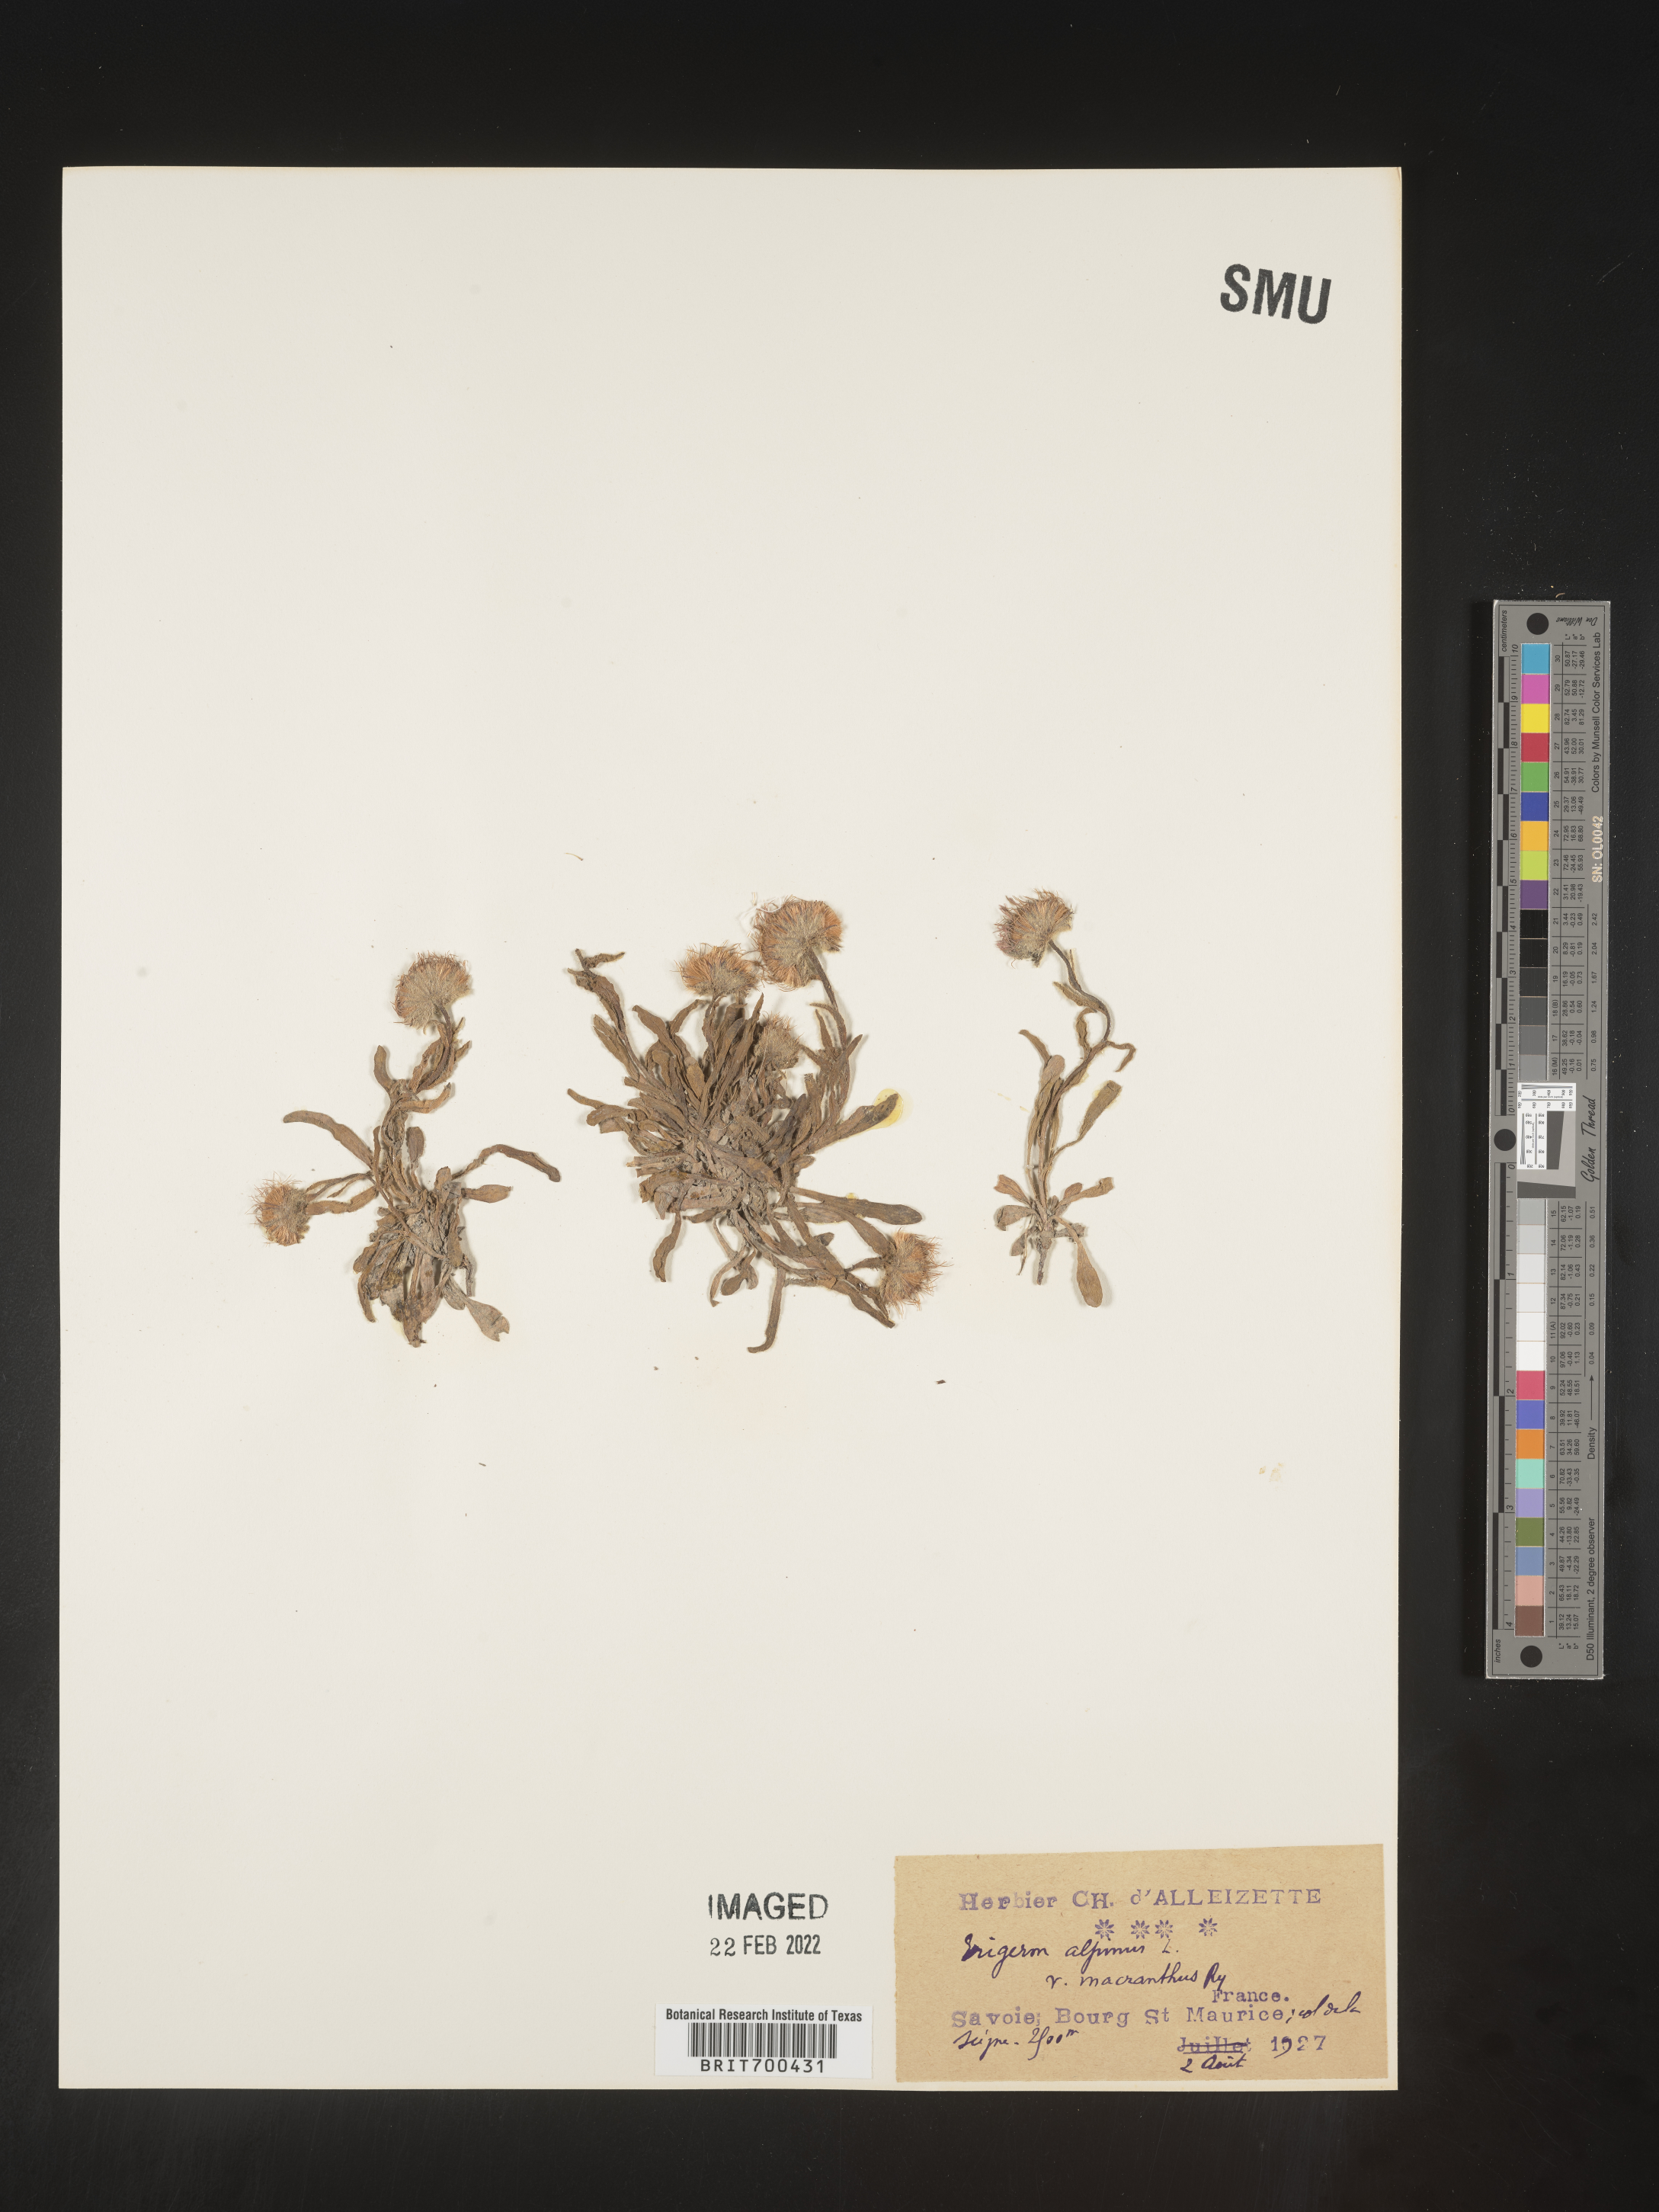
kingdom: Plantae
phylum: Tracheophyta
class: Magnoliopsida
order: Asterales
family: Asteraceae
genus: Erigeron
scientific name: Erigeron
